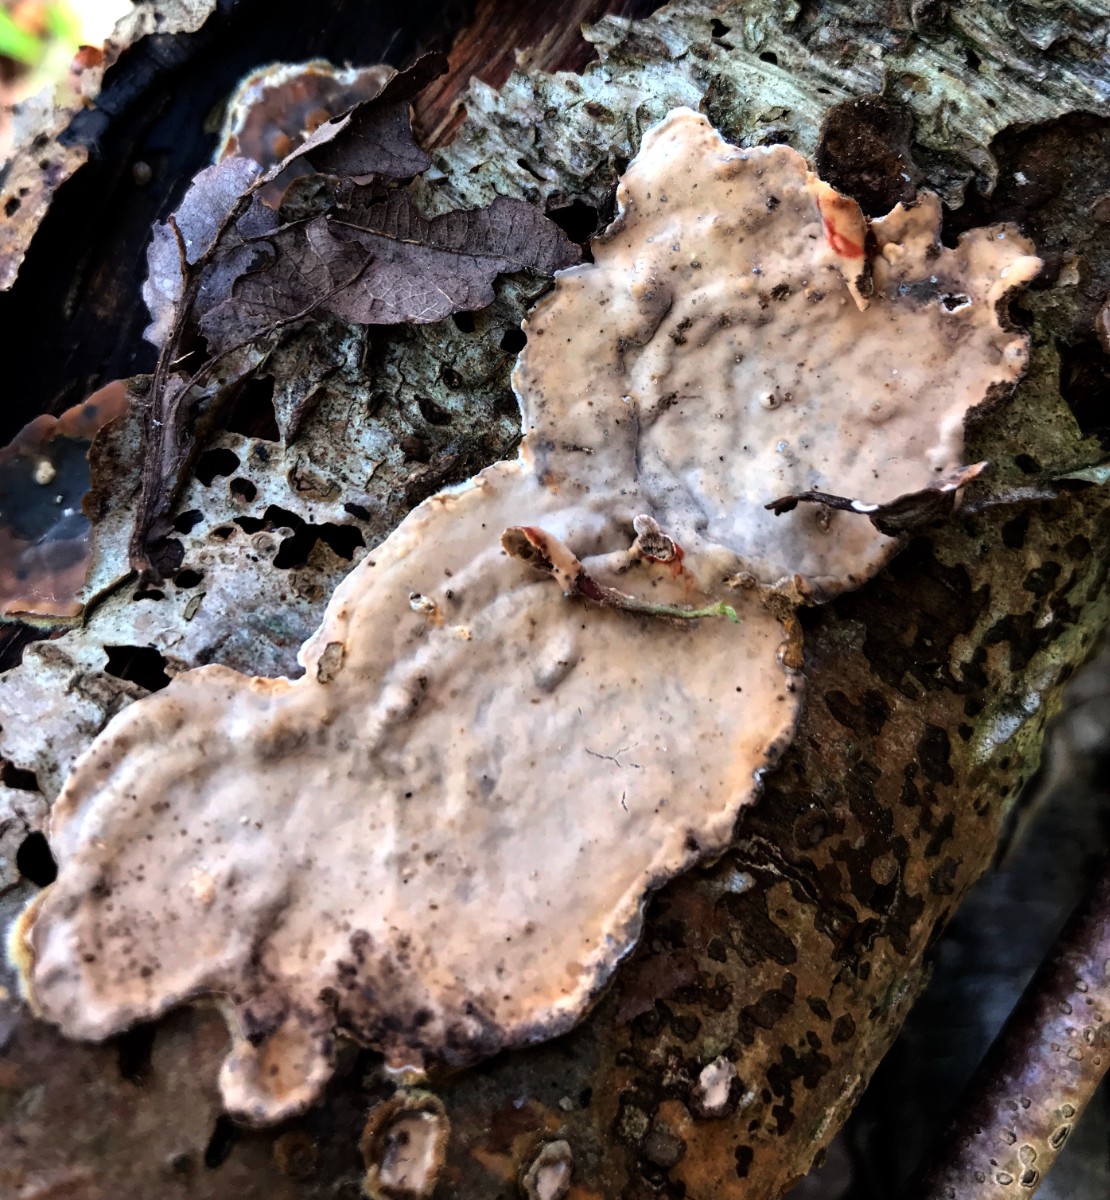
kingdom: Fungi
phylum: Basidiomycota
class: Agaricomycetes
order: Russulales
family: Stereaceae
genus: Stereum
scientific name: Stereum rugosum
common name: rynket lædersvamp
